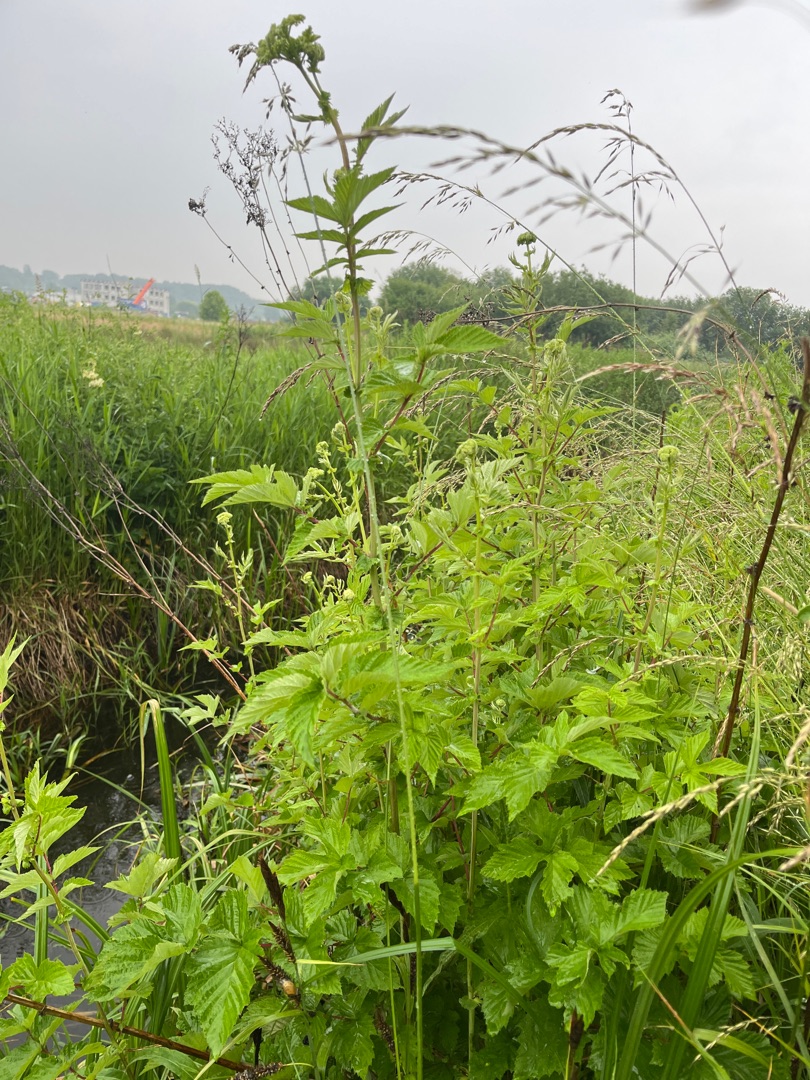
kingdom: Plantae
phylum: Tracheophyta
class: Magnoliopsida
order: Rosales
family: Rosaceae
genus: Filipendula
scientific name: Filipendula ulmaria
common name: Almindelig mjødurt
